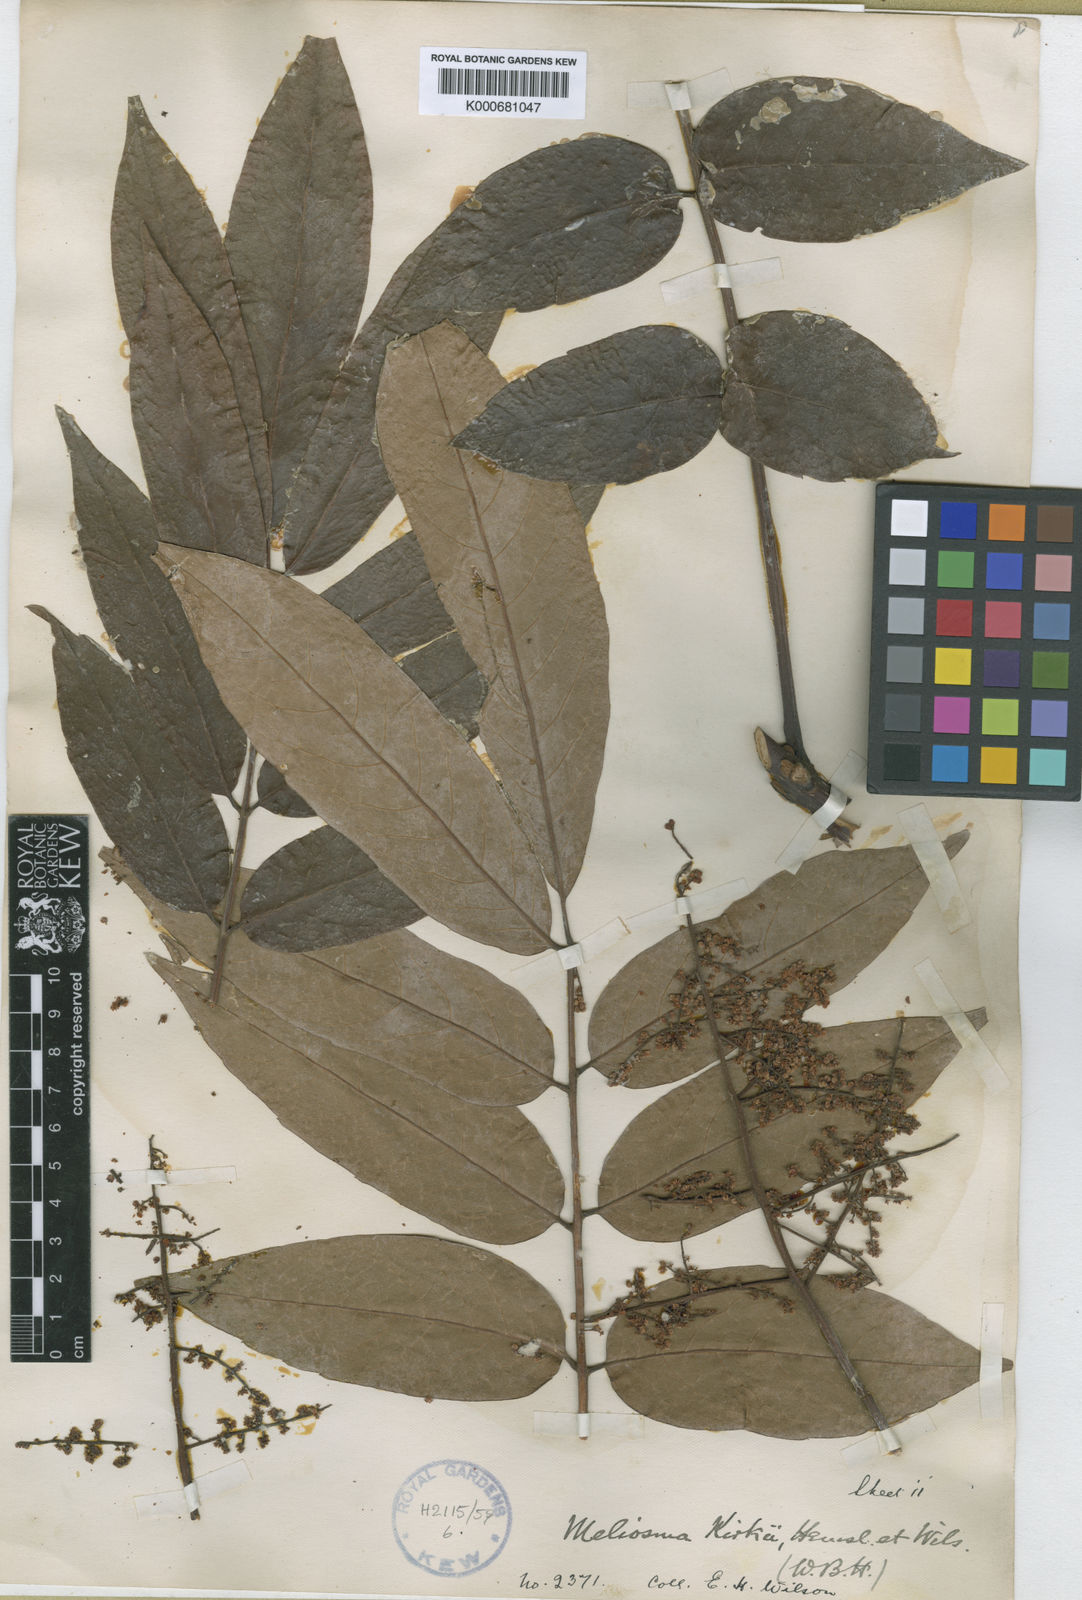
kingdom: Plantae
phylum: Tracheophyta
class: Magnoliopsida
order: Proteales
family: Sabiaceae
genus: Meliosma
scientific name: Meliosma pinnata
